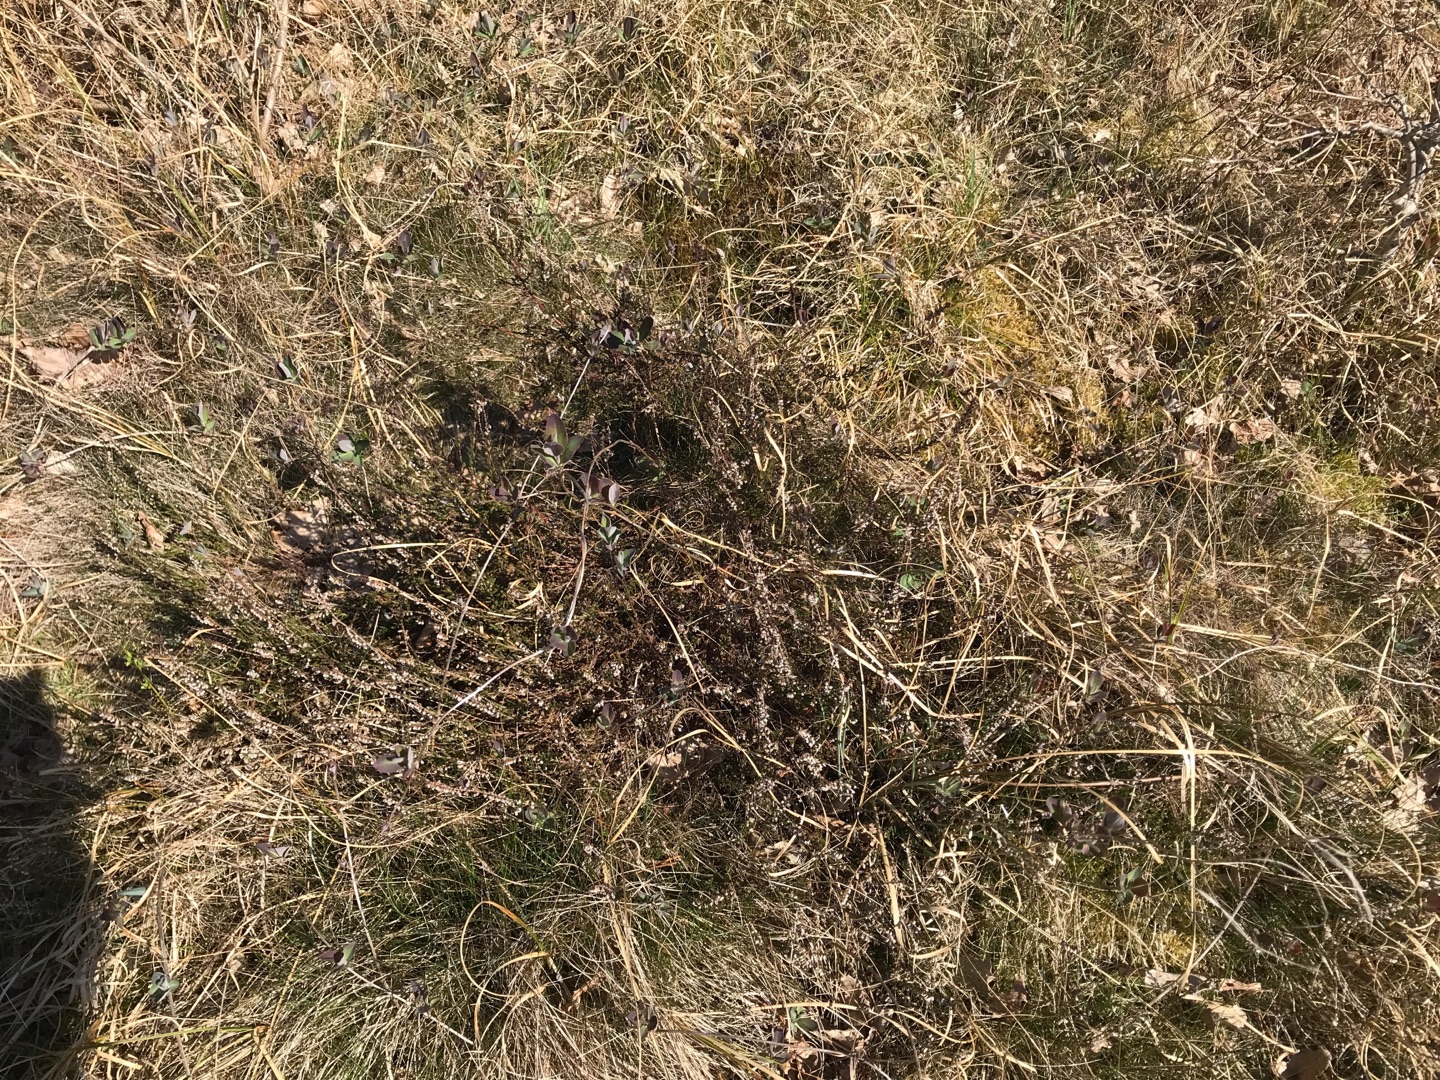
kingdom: Plantae
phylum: Tracheophyta
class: Magnoliopsida
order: Ericales
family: Ericaceae
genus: Calluna
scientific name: Calluna vulgaris
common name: Hedelyng
